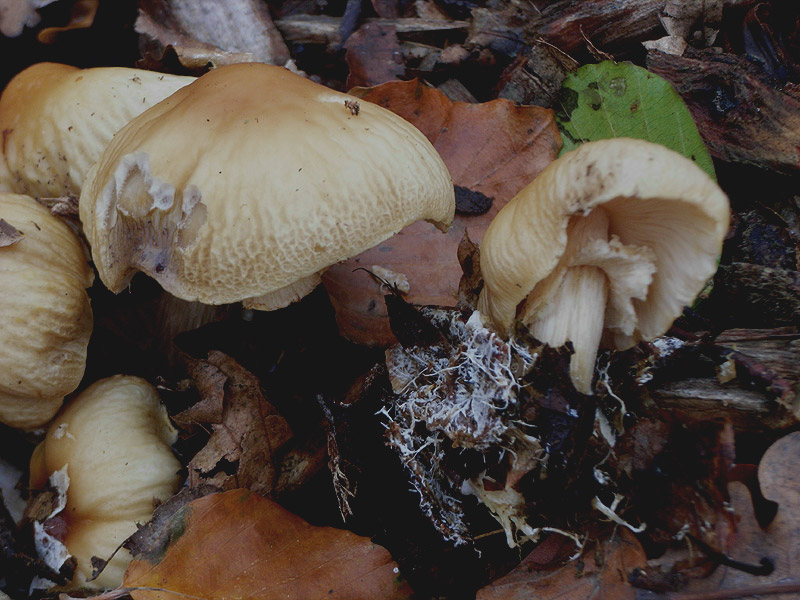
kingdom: Fungi
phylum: Basidiomycota
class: Agaricomycetes
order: Agaricales
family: Strophariaceae
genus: Agrocybe
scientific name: Agrocybe rivulosa
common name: året agerhat
